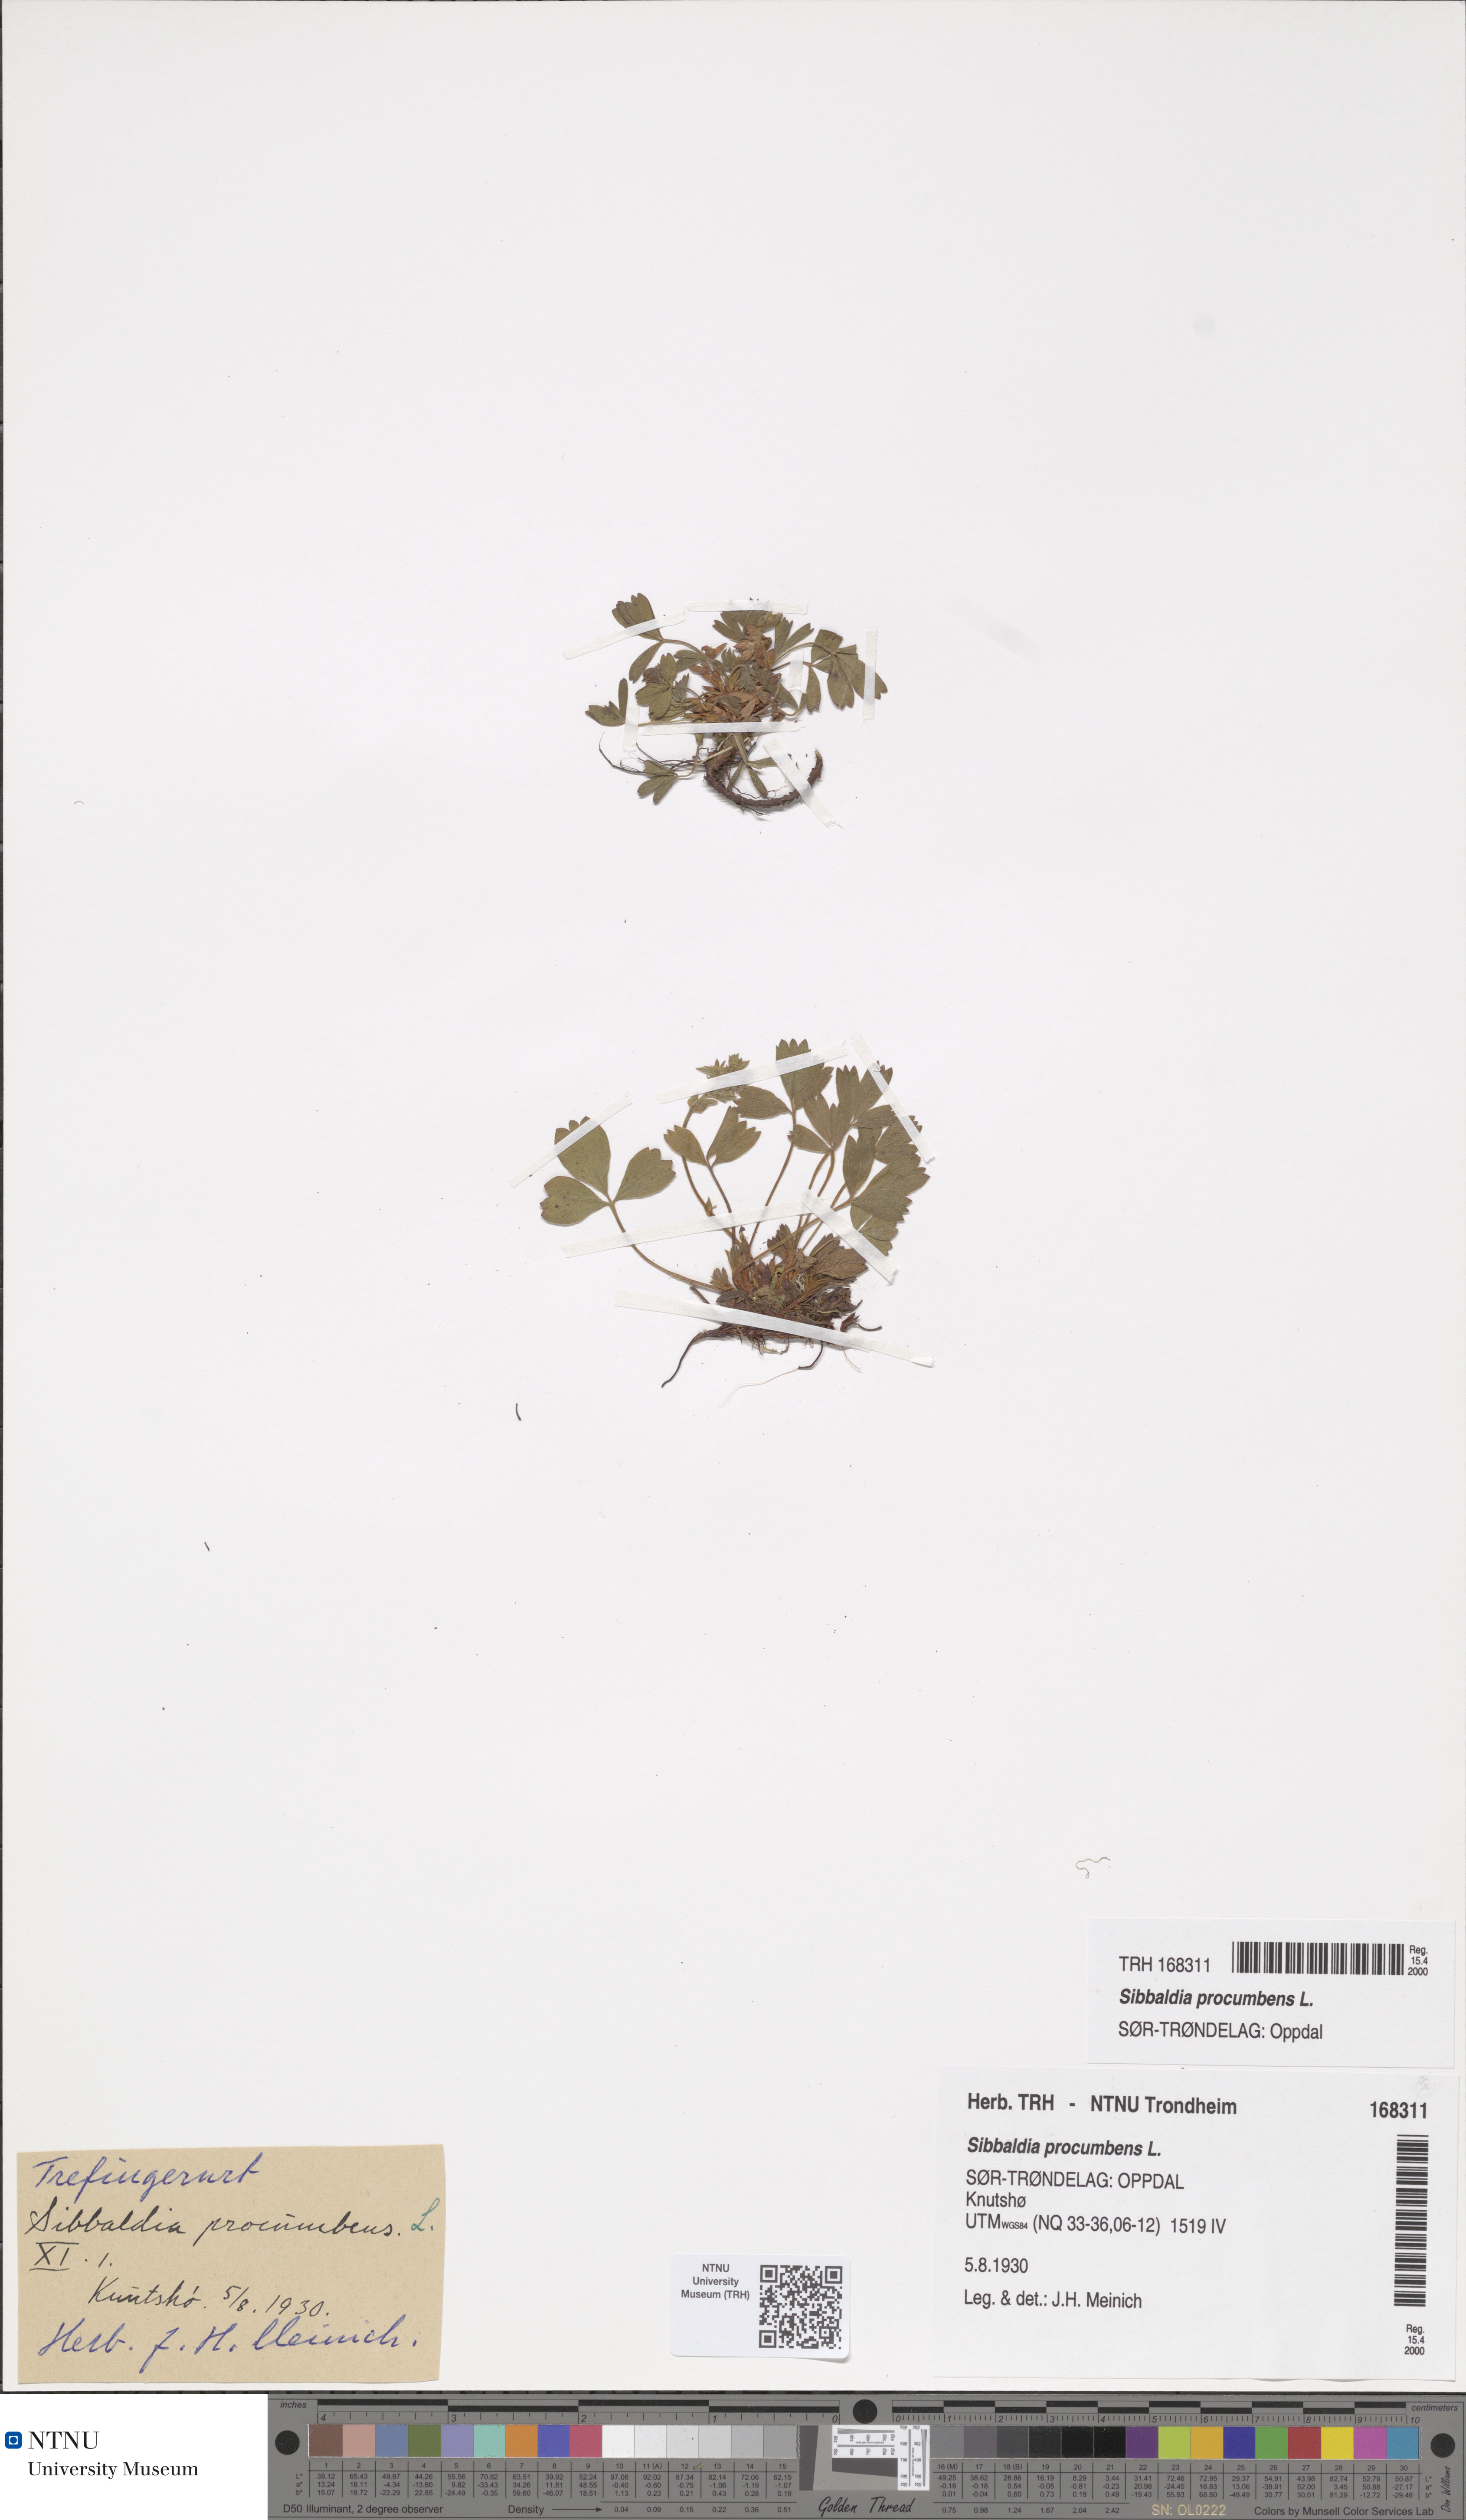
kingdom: Plantae
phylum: Tracheophyta
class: Magnoliopsida
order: Rosales
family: Rosaceae
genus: Sibbaldia
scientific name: Sibbaldia procumbens
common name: Creeping sibbaldia
